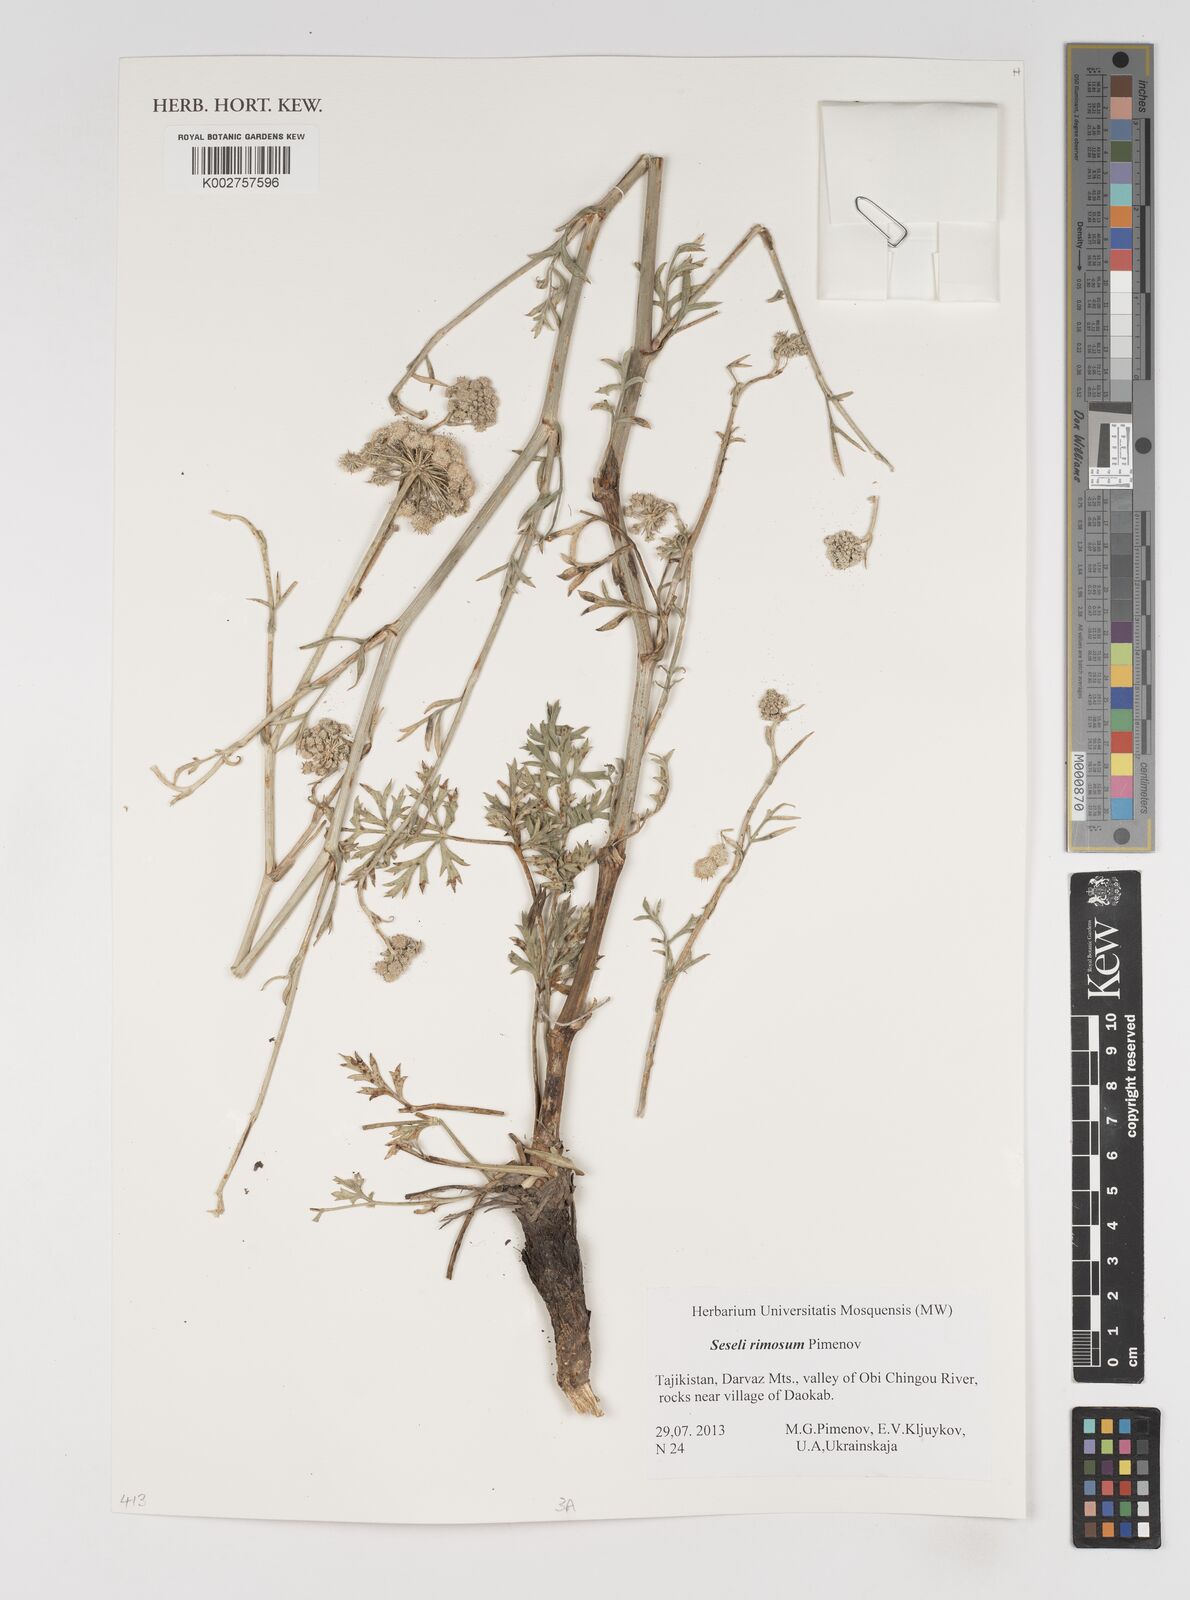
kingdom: Plantae
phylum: Tracheophyta
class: Magnoliopsida
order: Apiales
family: Apiaceae
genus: Seseli
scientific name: Seseli rimosum
